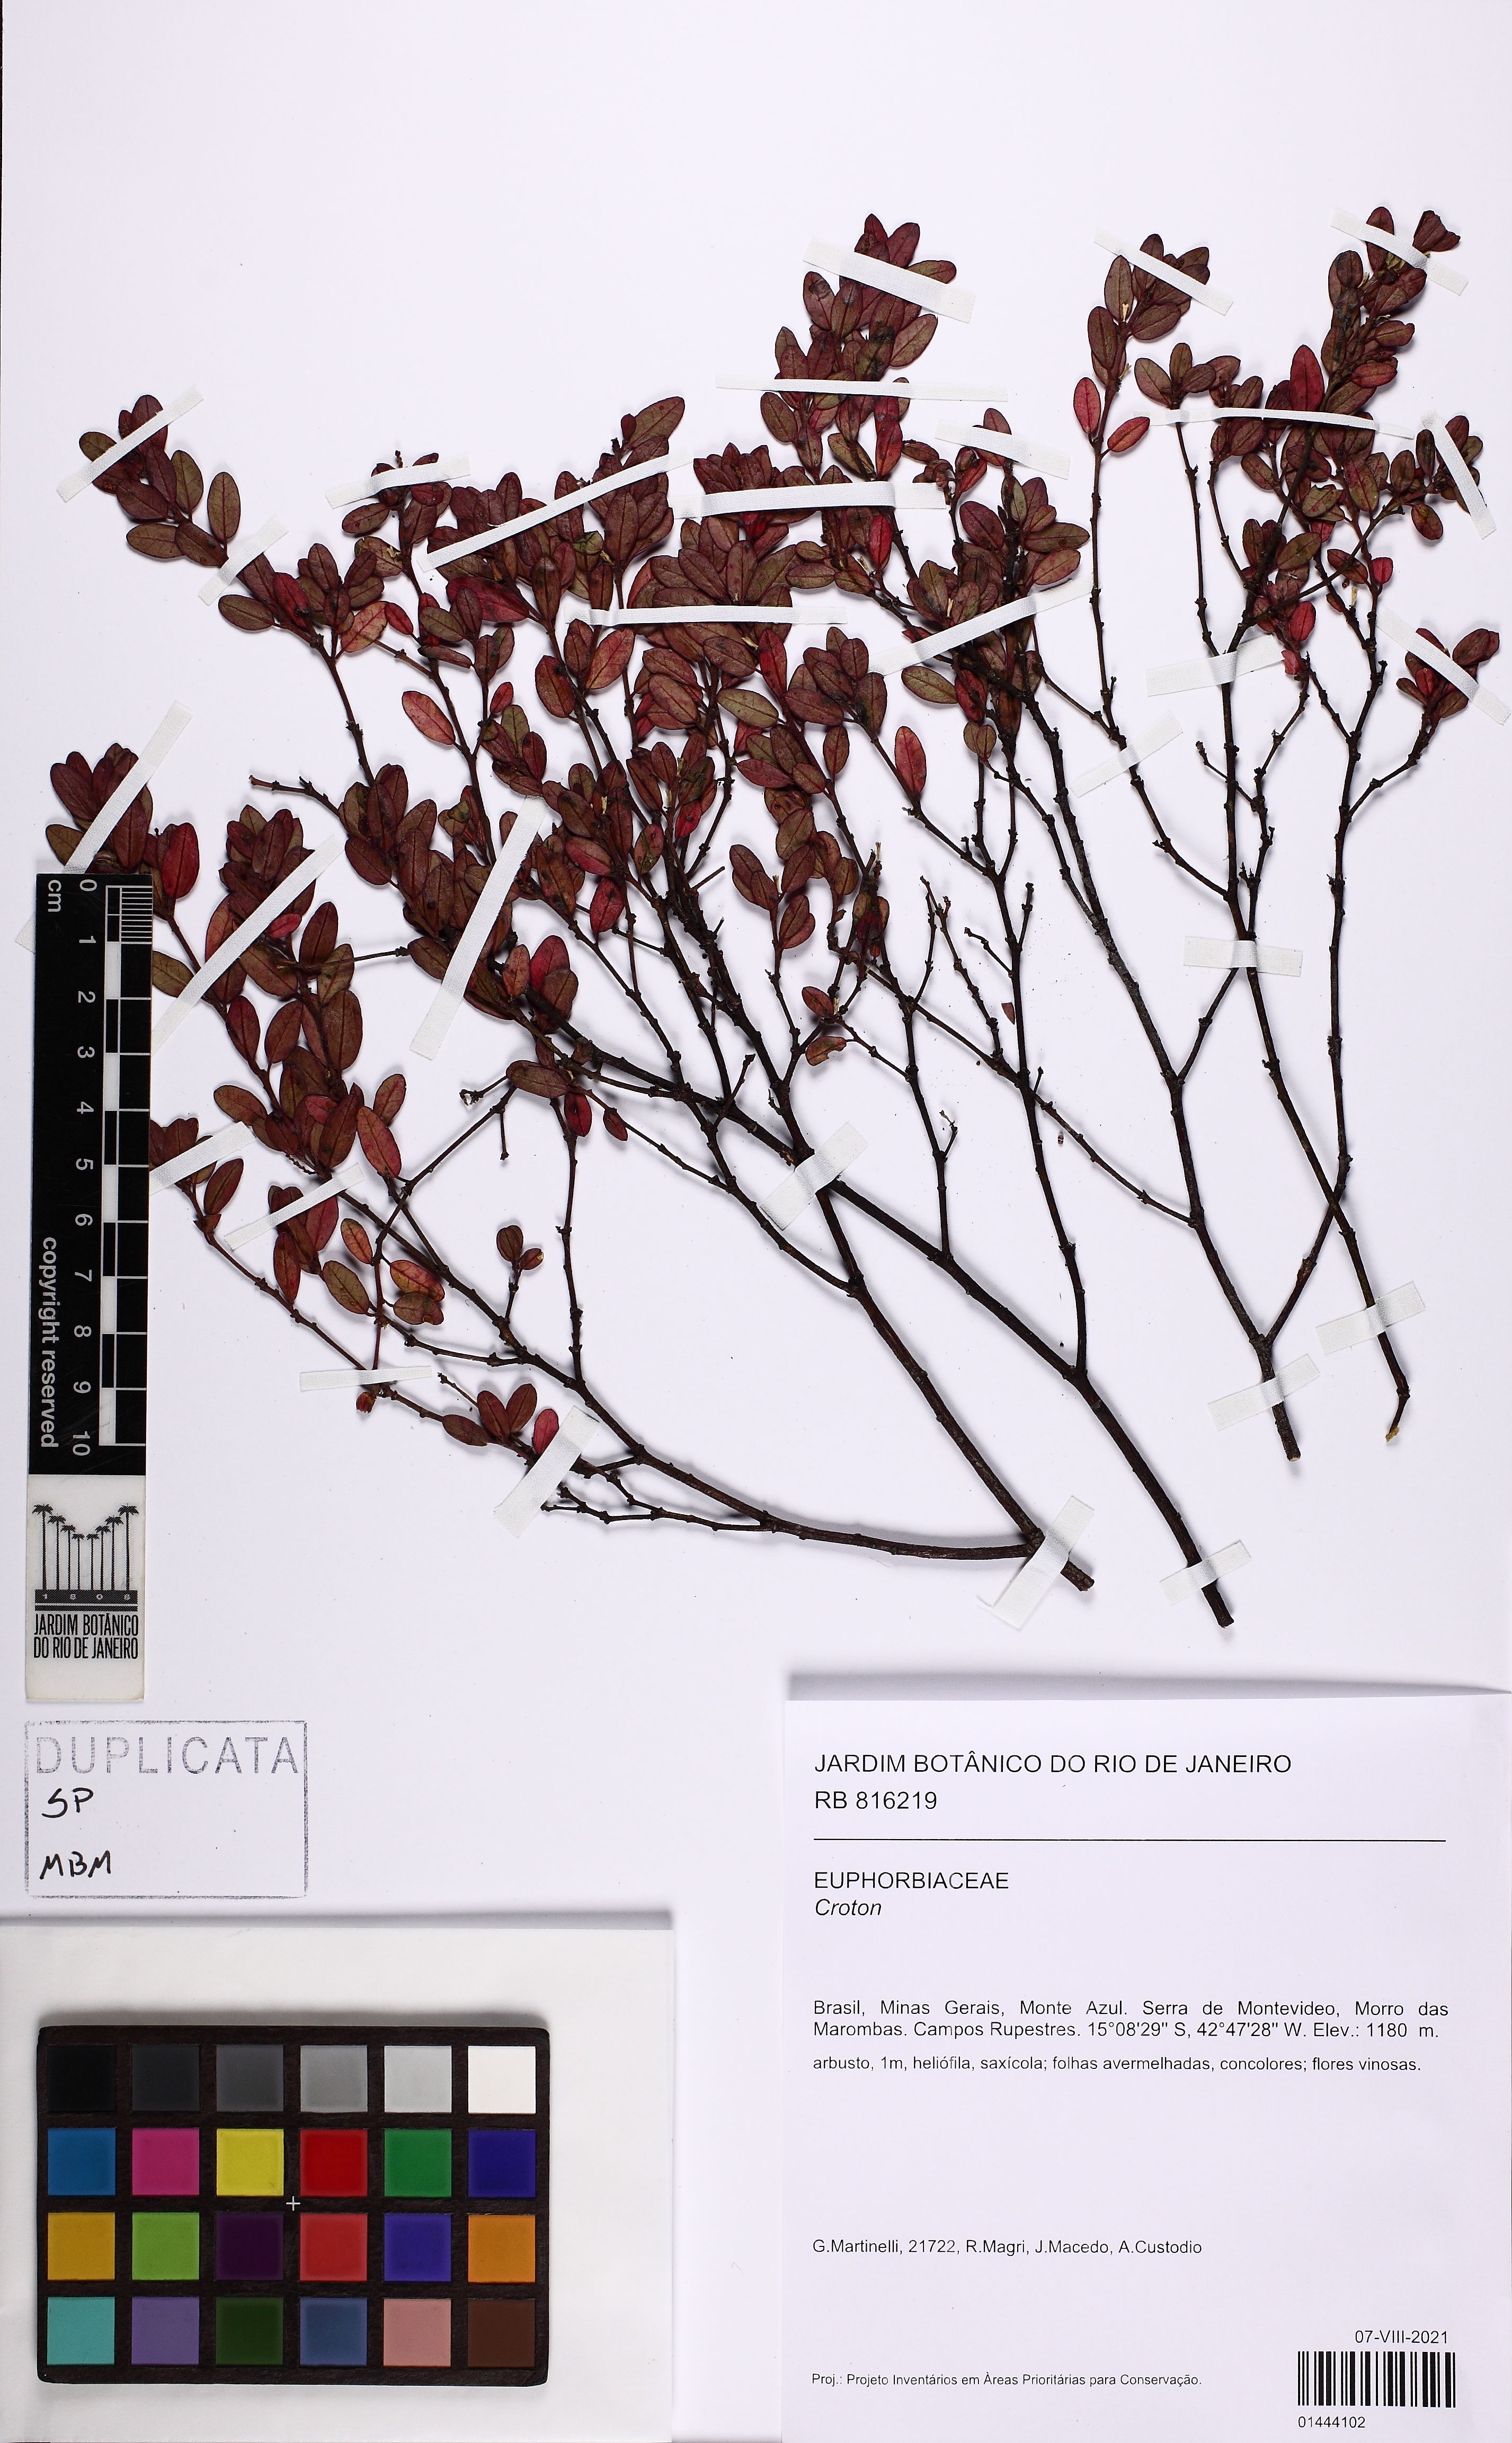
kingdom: Plantae
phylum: Tracheophyta
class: Magnoliopsida
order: Malpighiales
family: Euphorbiaceae
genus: Microstachys
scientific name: Microstachys glandulosa
